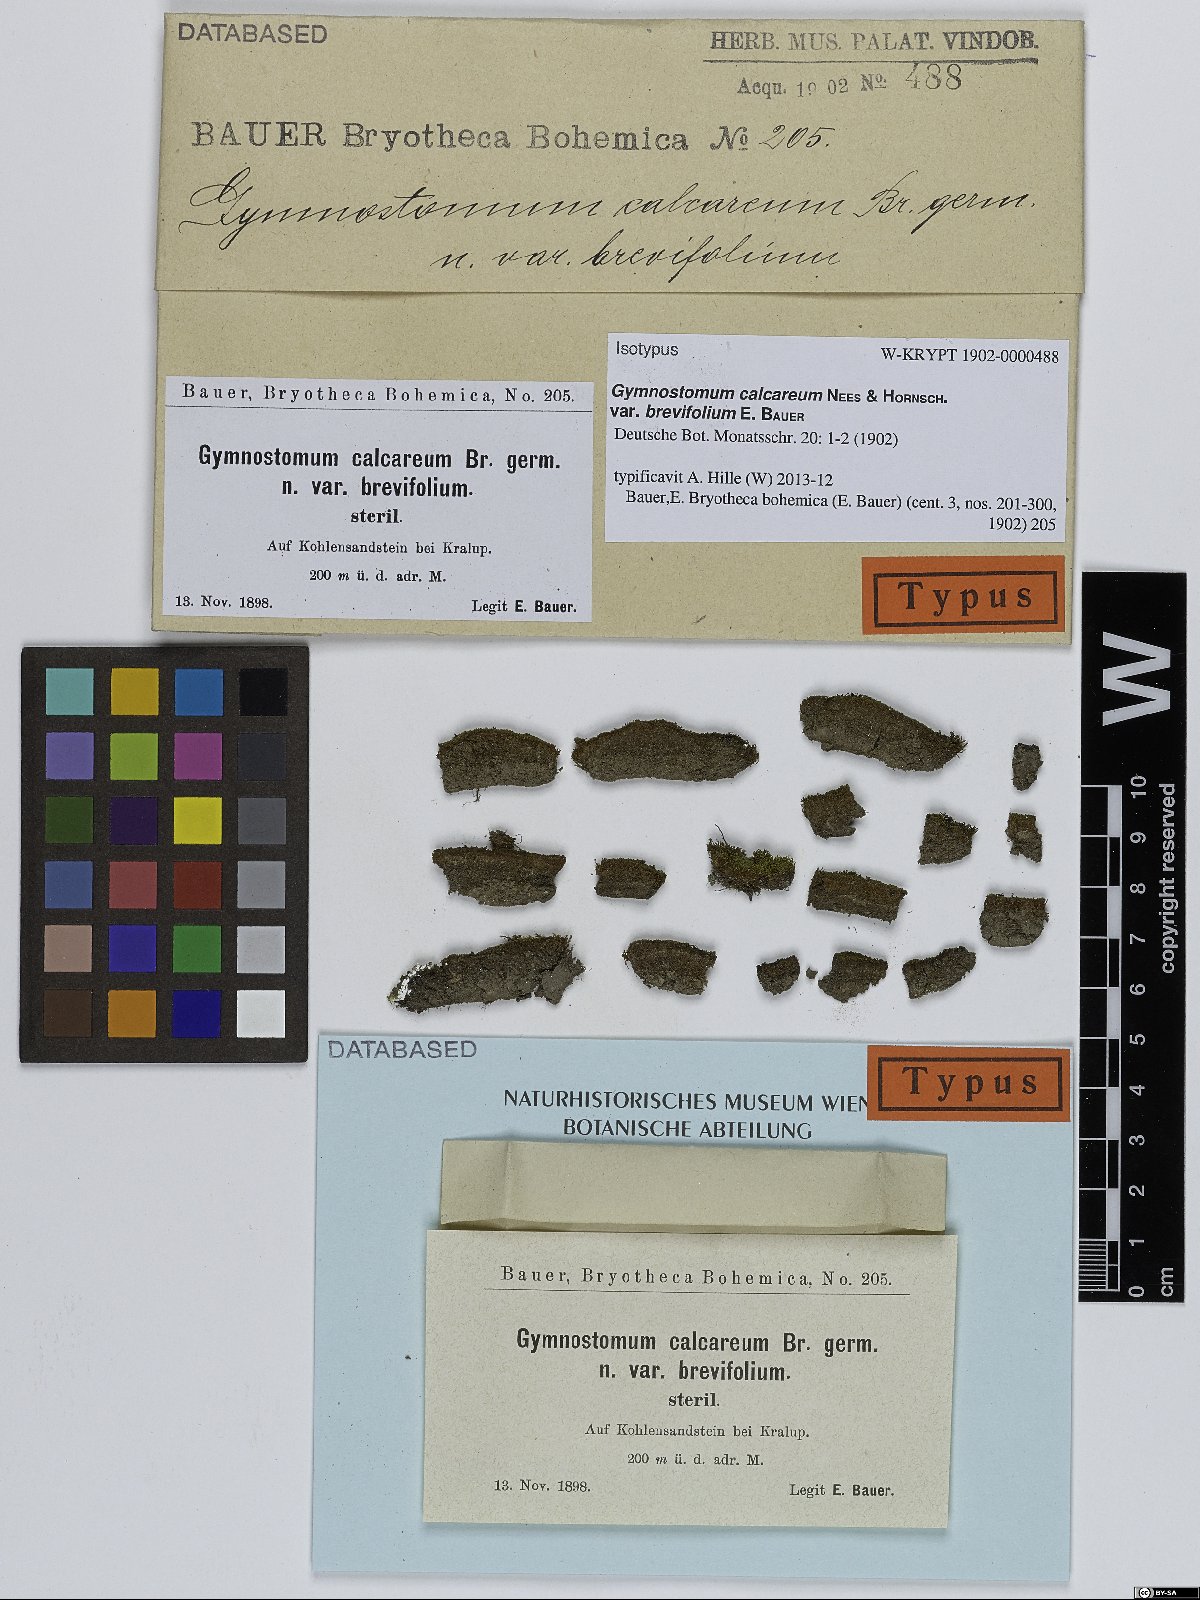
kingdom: Plantae
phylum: Bryophyta
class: Bryopsida
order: Pottiales
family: Pottiaceae
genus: Gymnostomum
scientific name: Gymnostomum viridulum
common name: Luisier's tufa-moss
